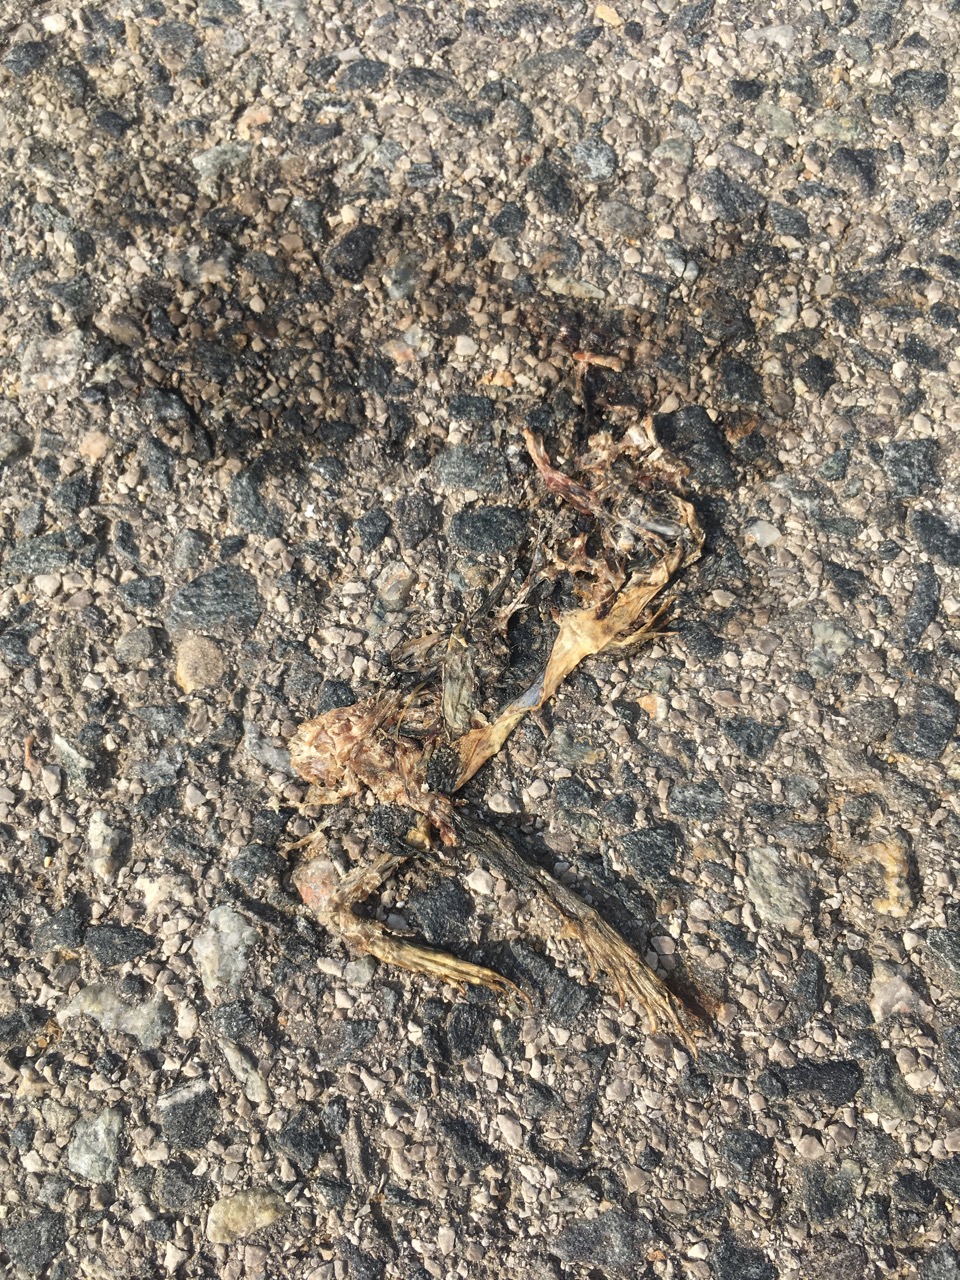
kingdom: Animalia
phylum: Chordata
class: Amphibia
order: Anura
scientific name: Anura
